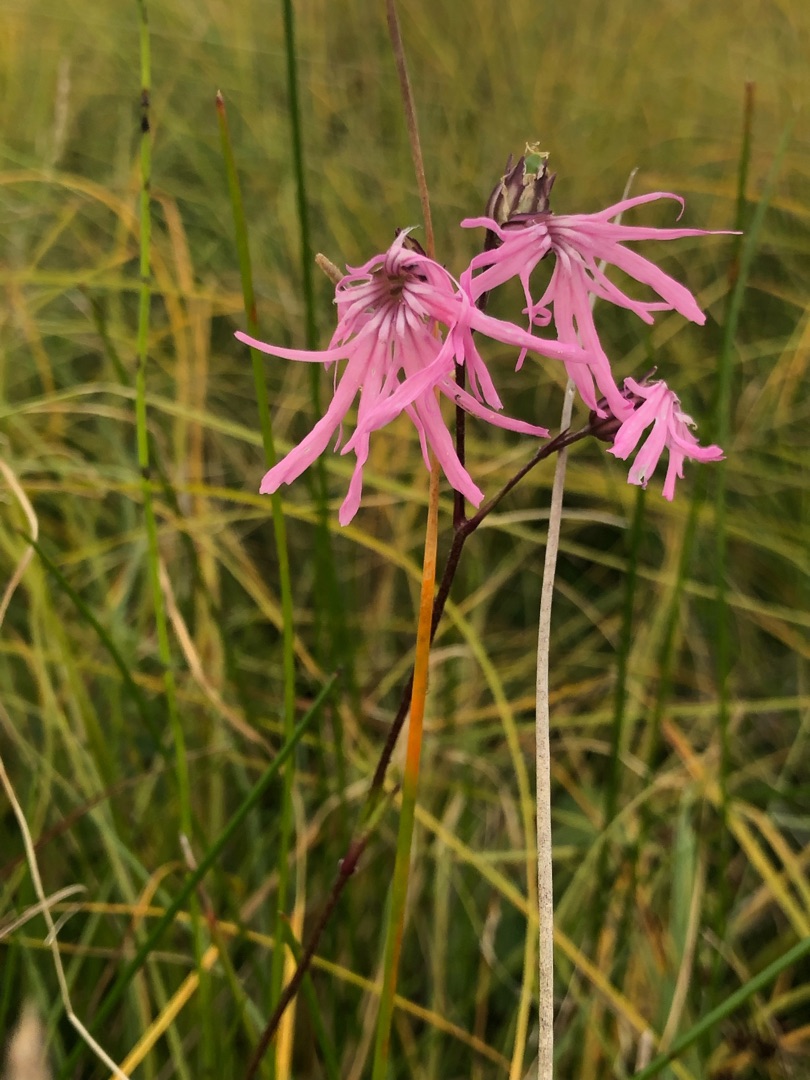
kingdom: Plantae
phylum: Tracheophyta
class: Magnoliopsida
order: Caryophyllales
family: Caryophyllaceae
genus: Silene
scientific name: Silene flos-cuculi
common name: Trævlekrone
